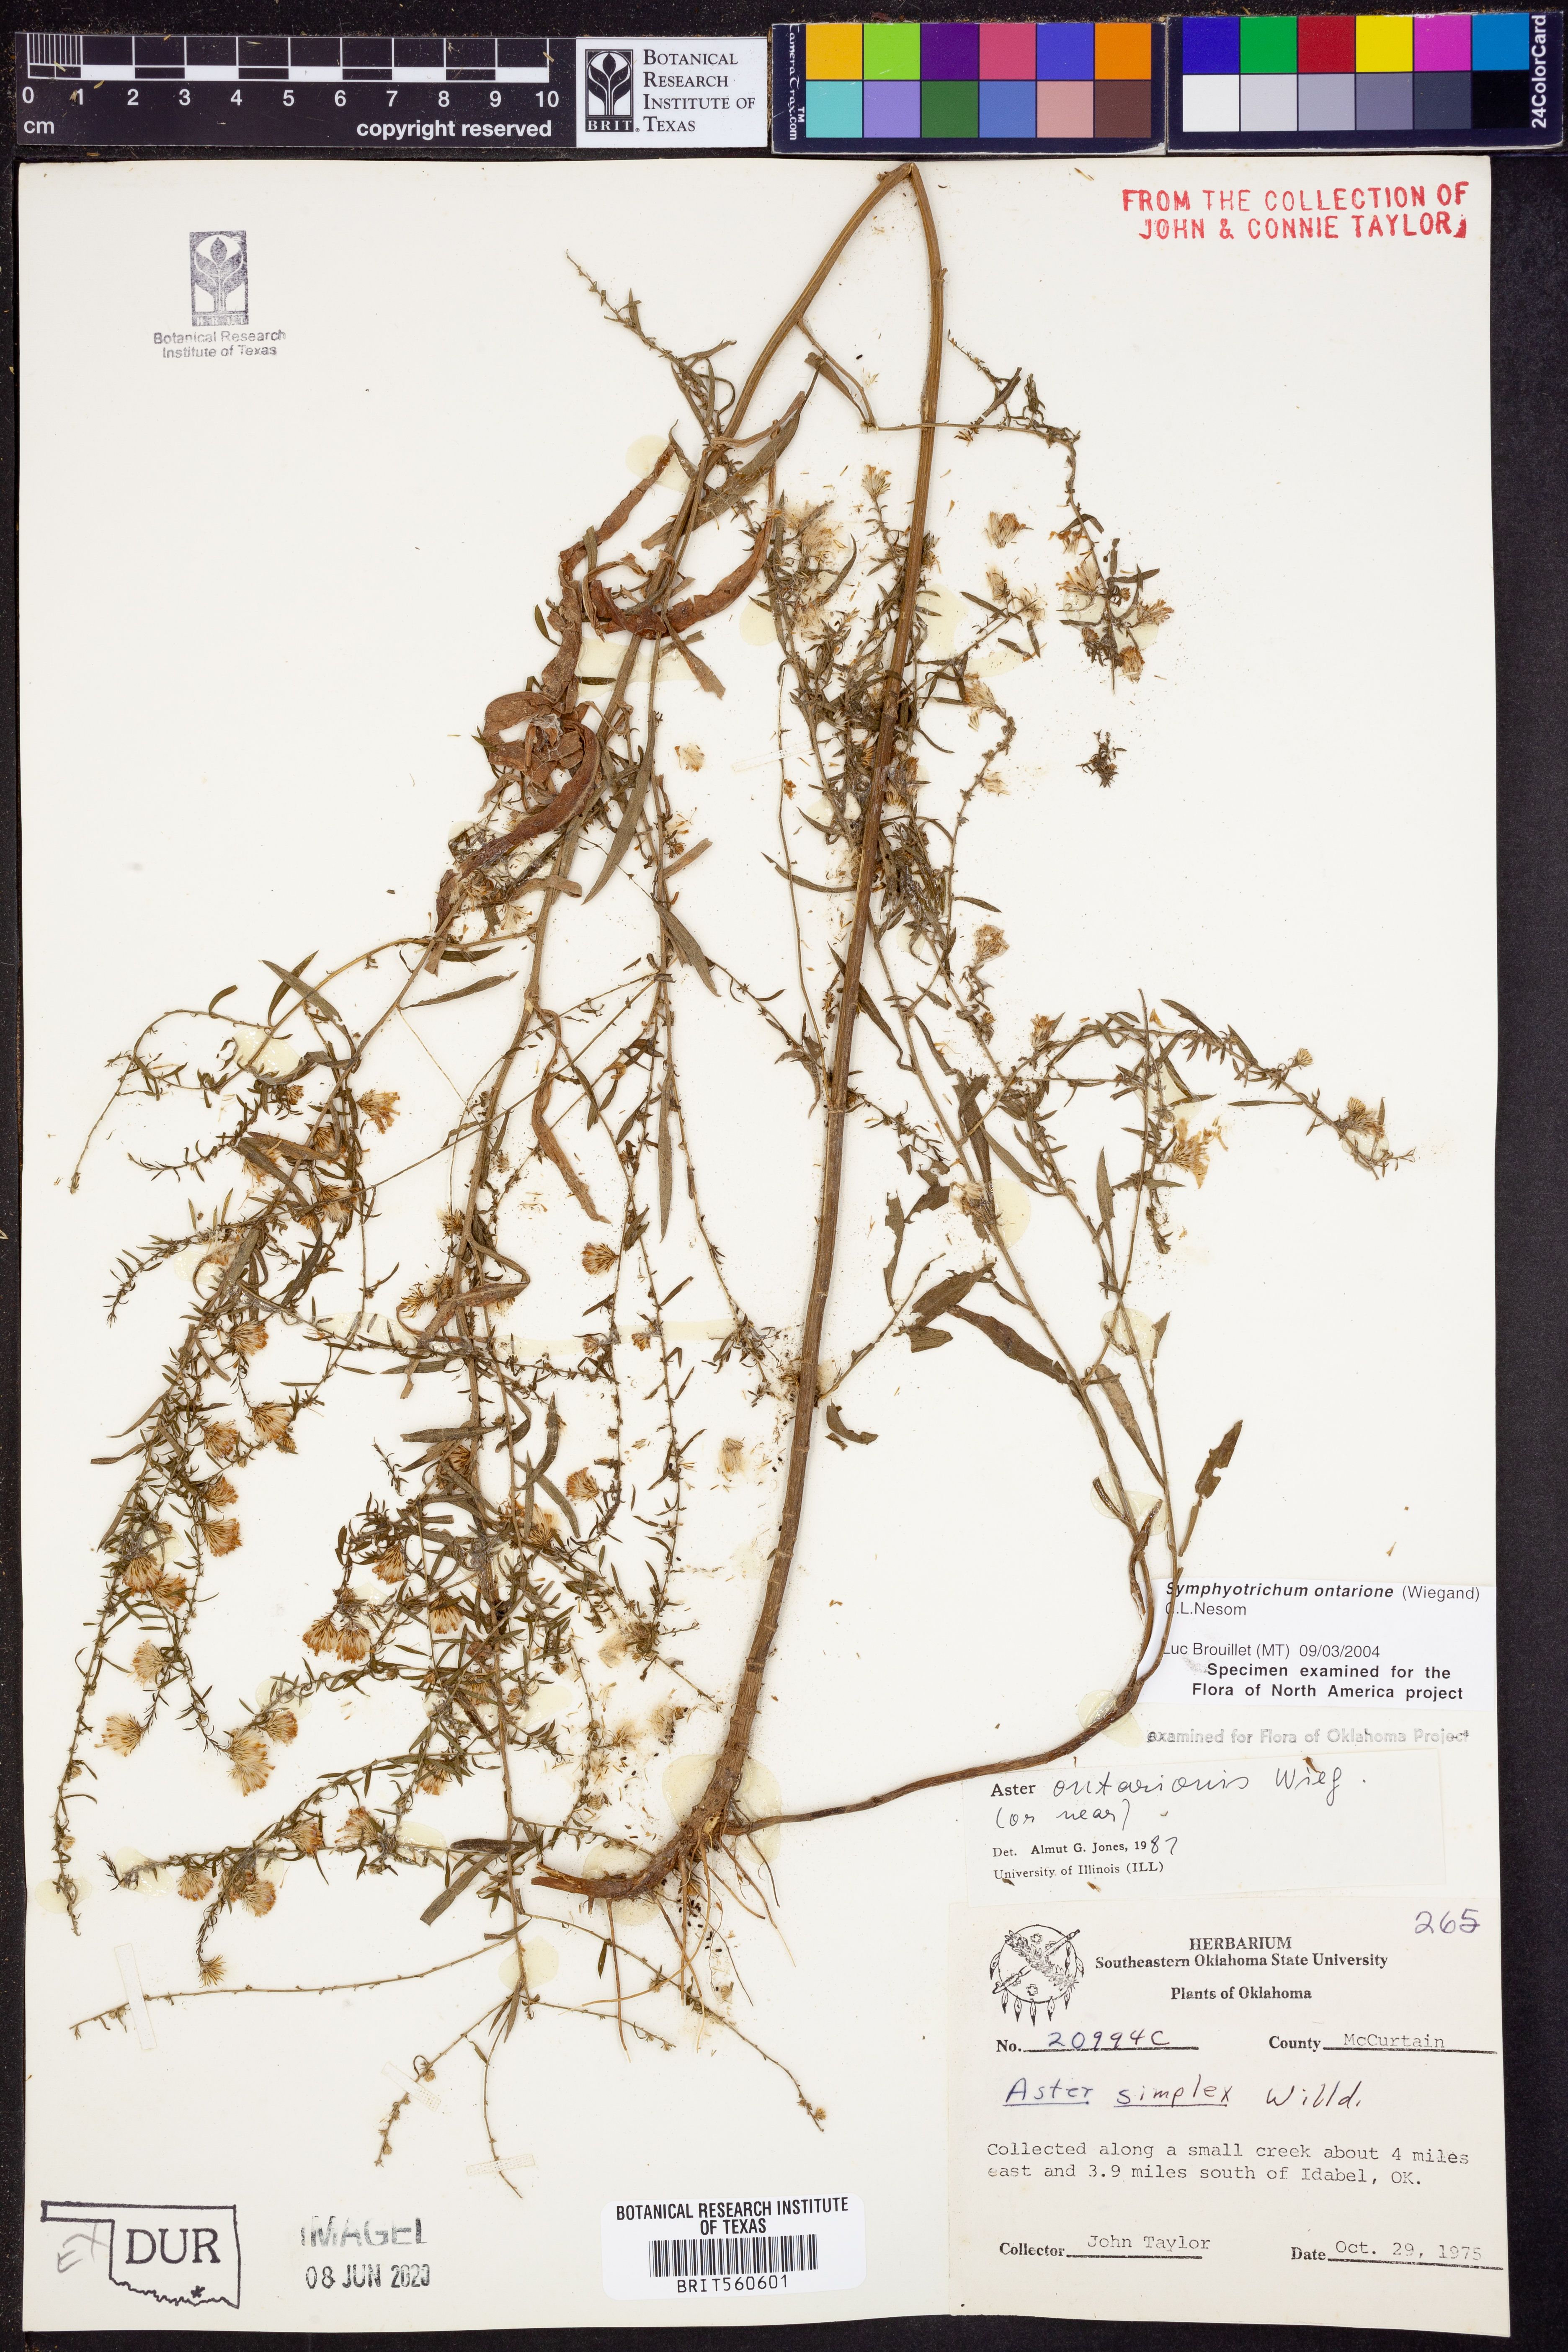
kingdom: Plantae
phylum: Tracheophyta
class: Magnoliopsida
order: Asterales
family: Asteraceae
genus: Symphyotrichum
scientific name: Symphyotrichum ontarionis
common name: Bottomland aster
